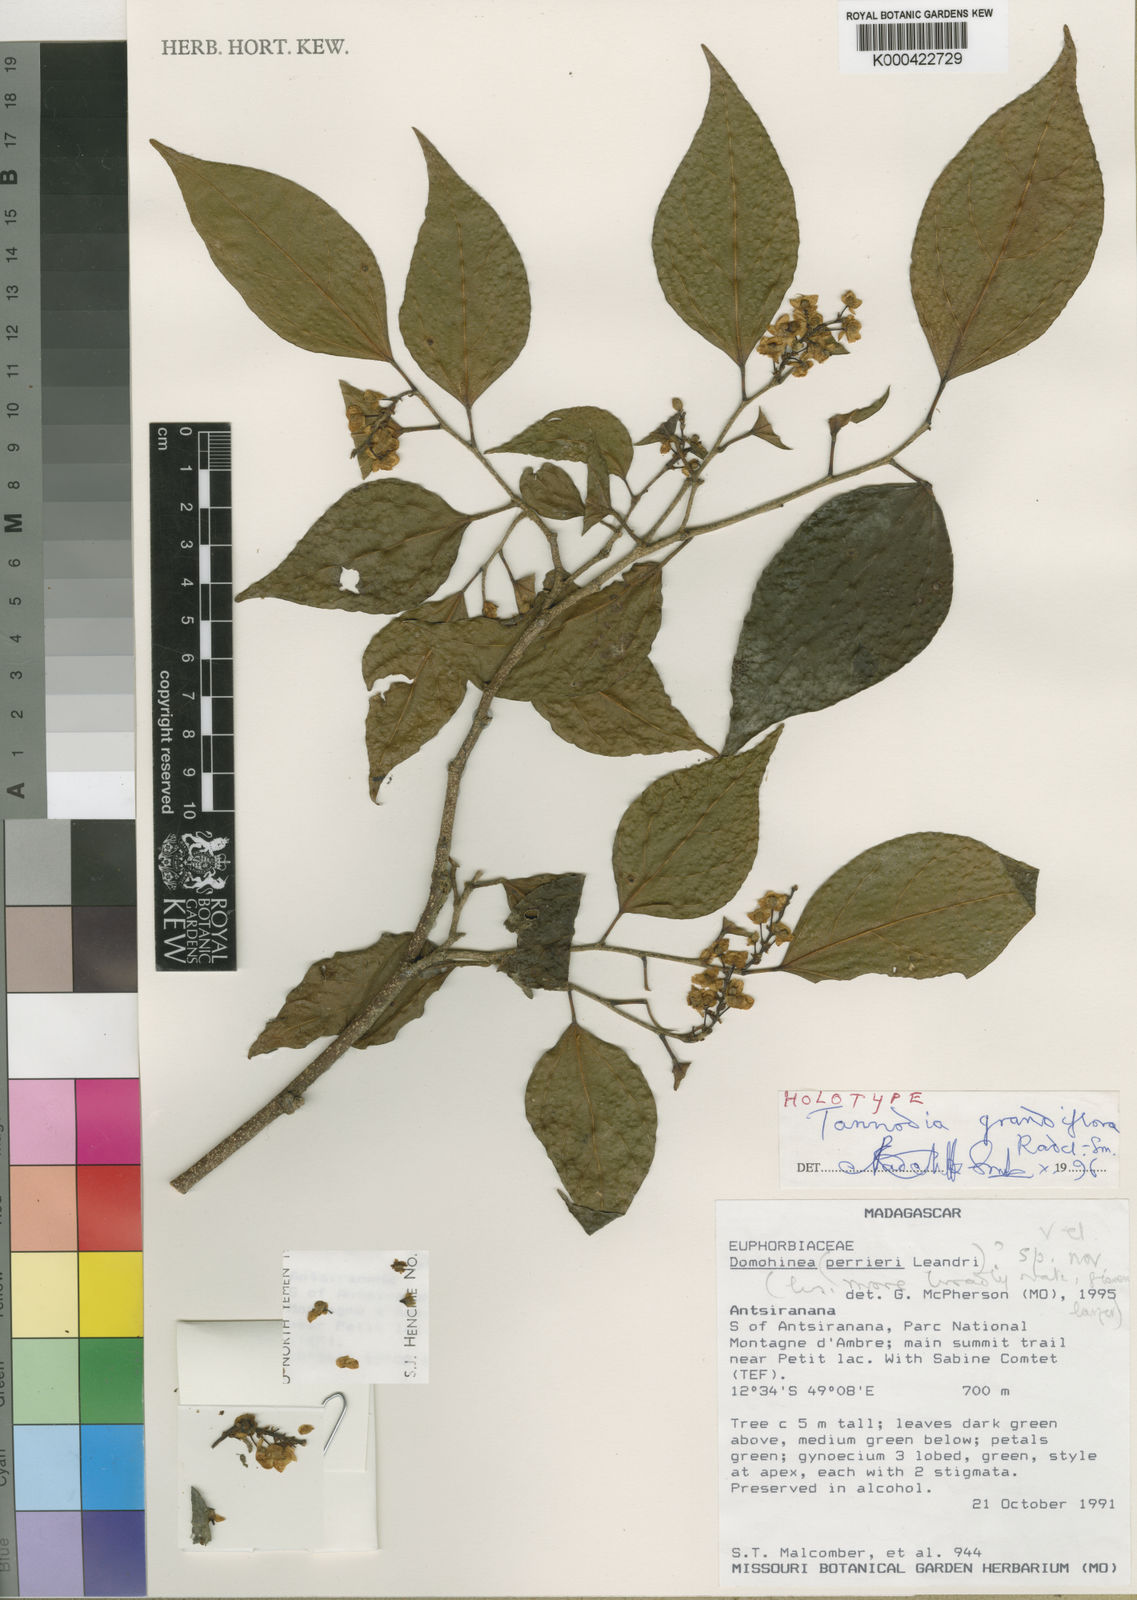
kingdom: Plantae
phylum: Tracheophyta
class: Magnoliopsida
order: Malpighiales
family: Euphorbiaceae
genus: Tannodia
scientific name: Tannodia grandiflora
